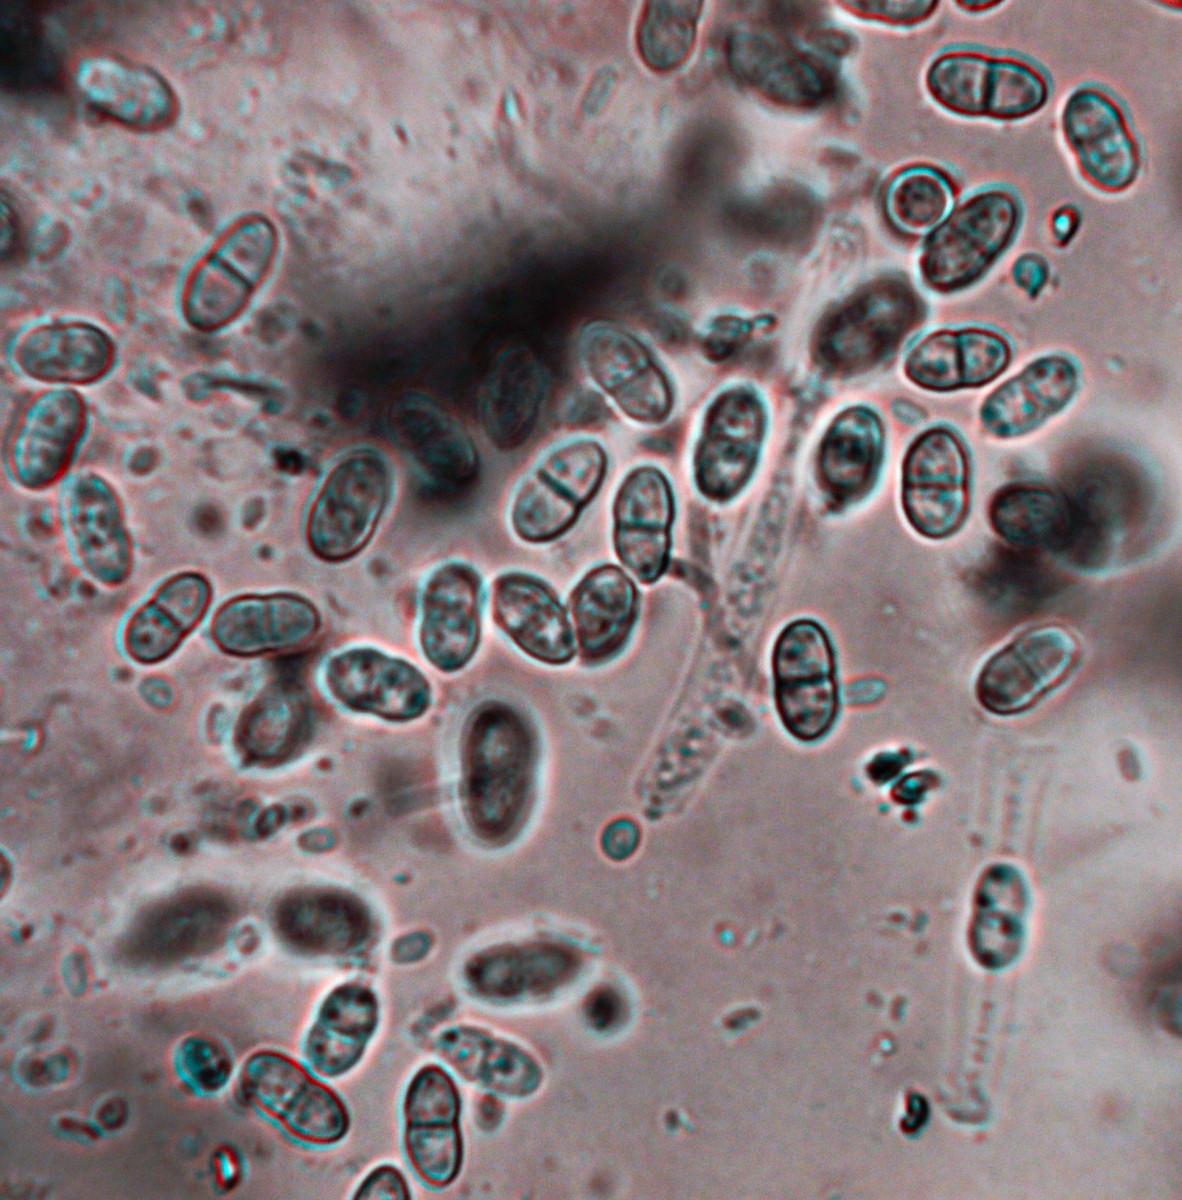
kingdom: Fungi
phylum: Ascomycota
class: Sordariomycetes
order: Hypocreales
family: Nectriaceae
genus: Pseudocosmospora
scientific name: Pseudocosmospora eutypae
